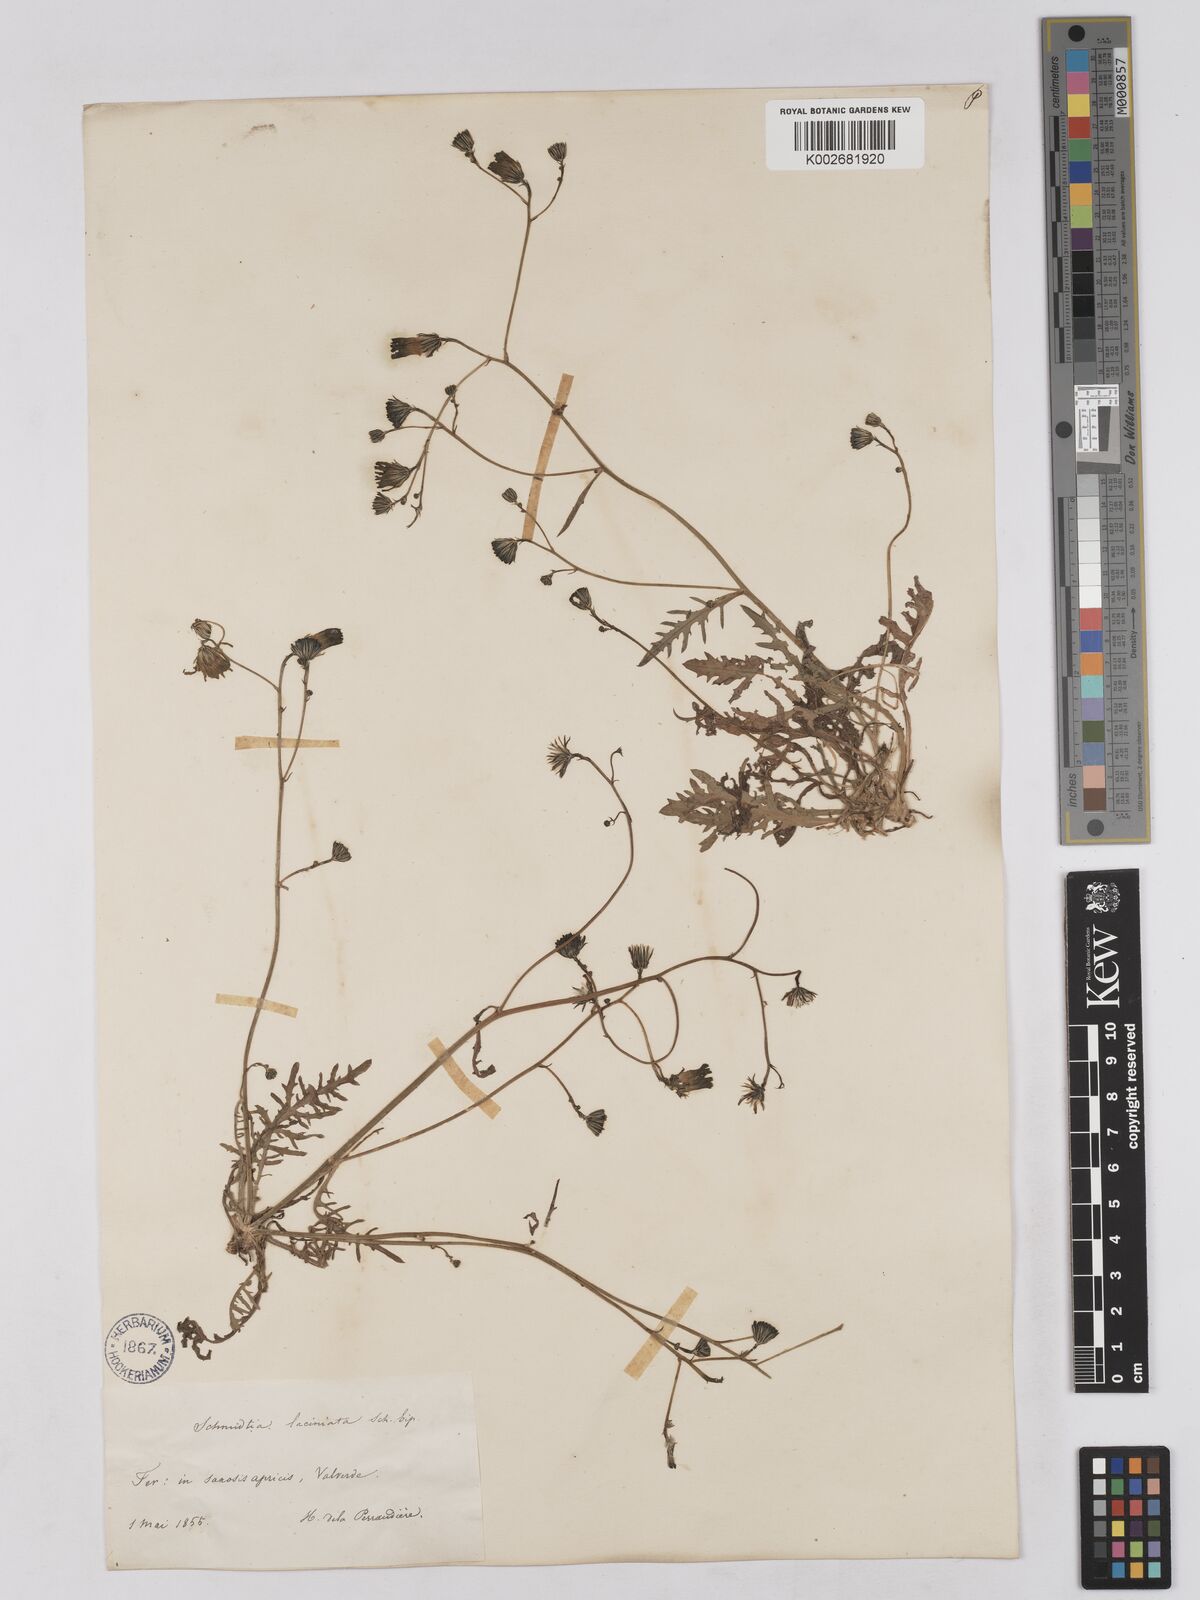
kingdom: Plantae
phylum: Tracheophyta
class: Magnoliopsida
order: Asterales
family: Asteraceae
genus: Tolpis
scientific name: Tolpis laciniata
